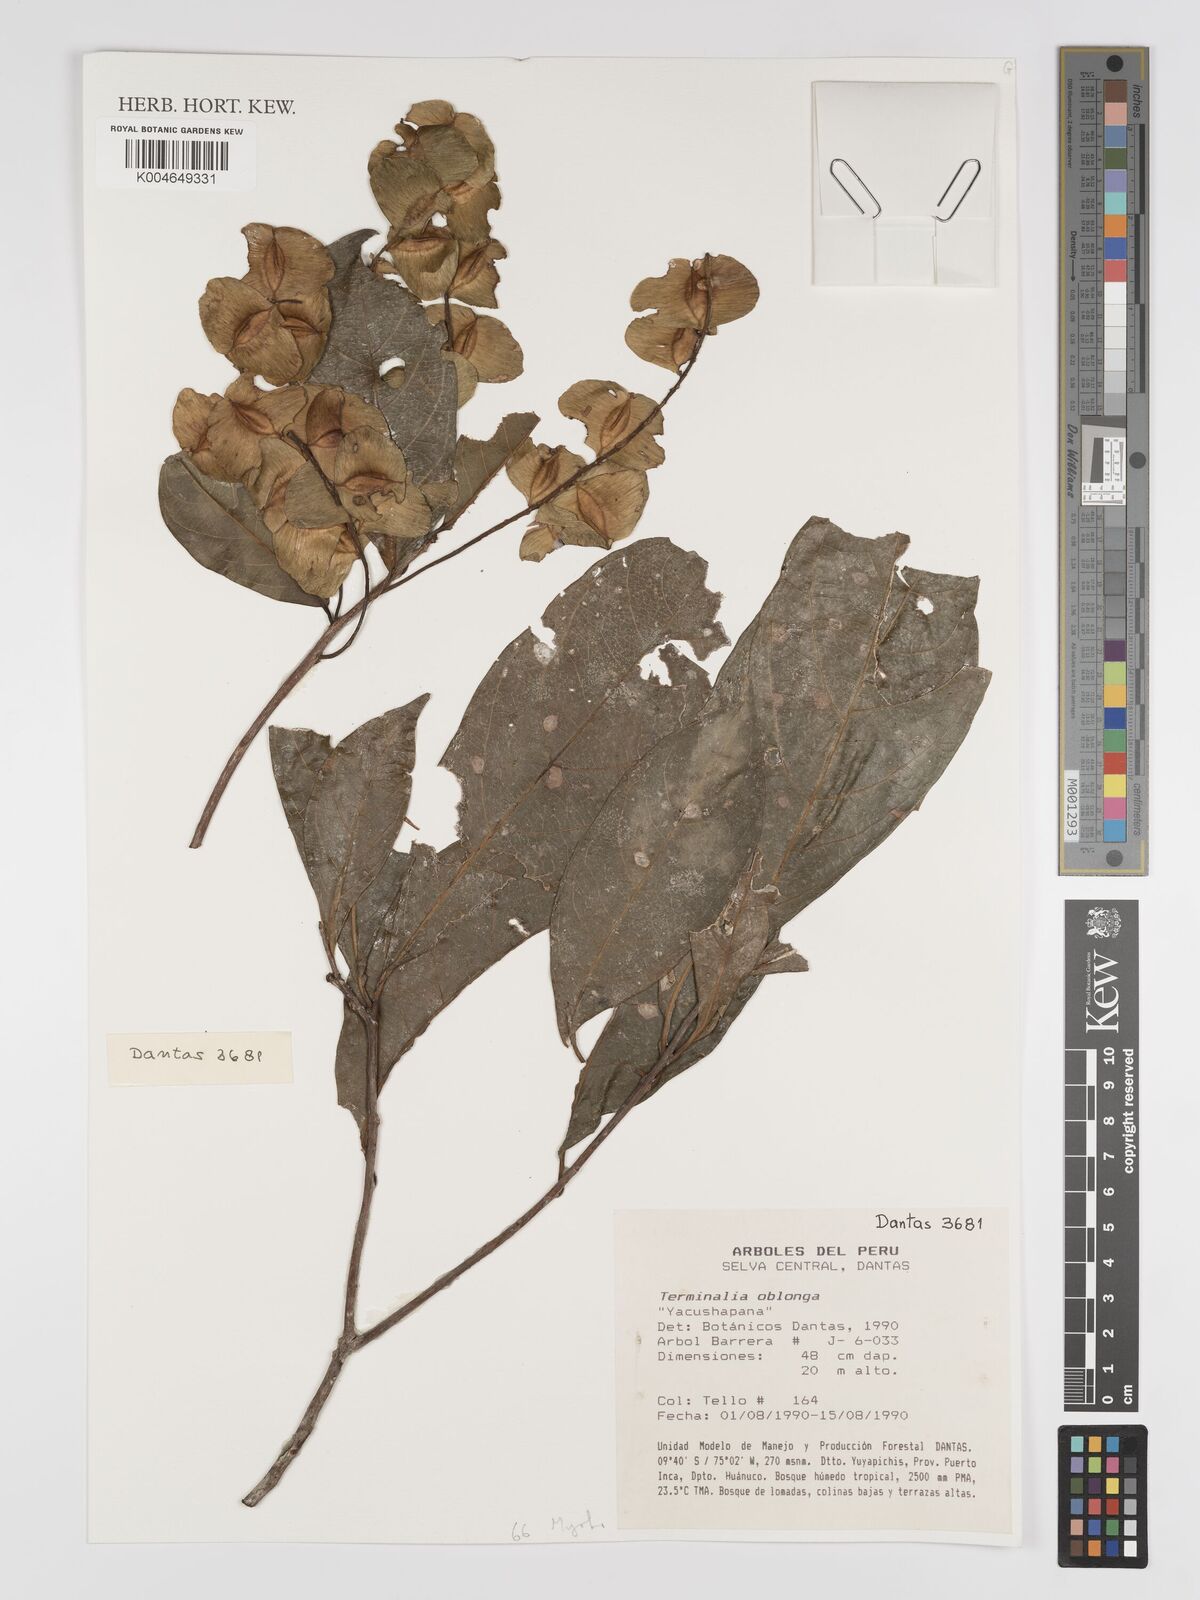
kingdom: Plantae
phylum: Tracheophyta
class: Magnoliopsida
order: Myrtales
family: Combretaceae
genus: Terminalia
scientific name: Terminalia oblonga
